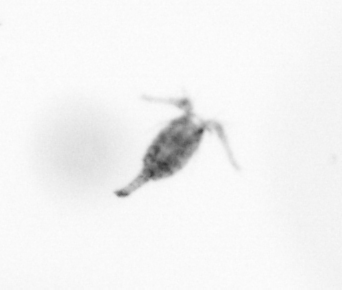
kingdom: Animalia
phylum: Arthropoda
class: Copepoda
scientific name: Copepoda
